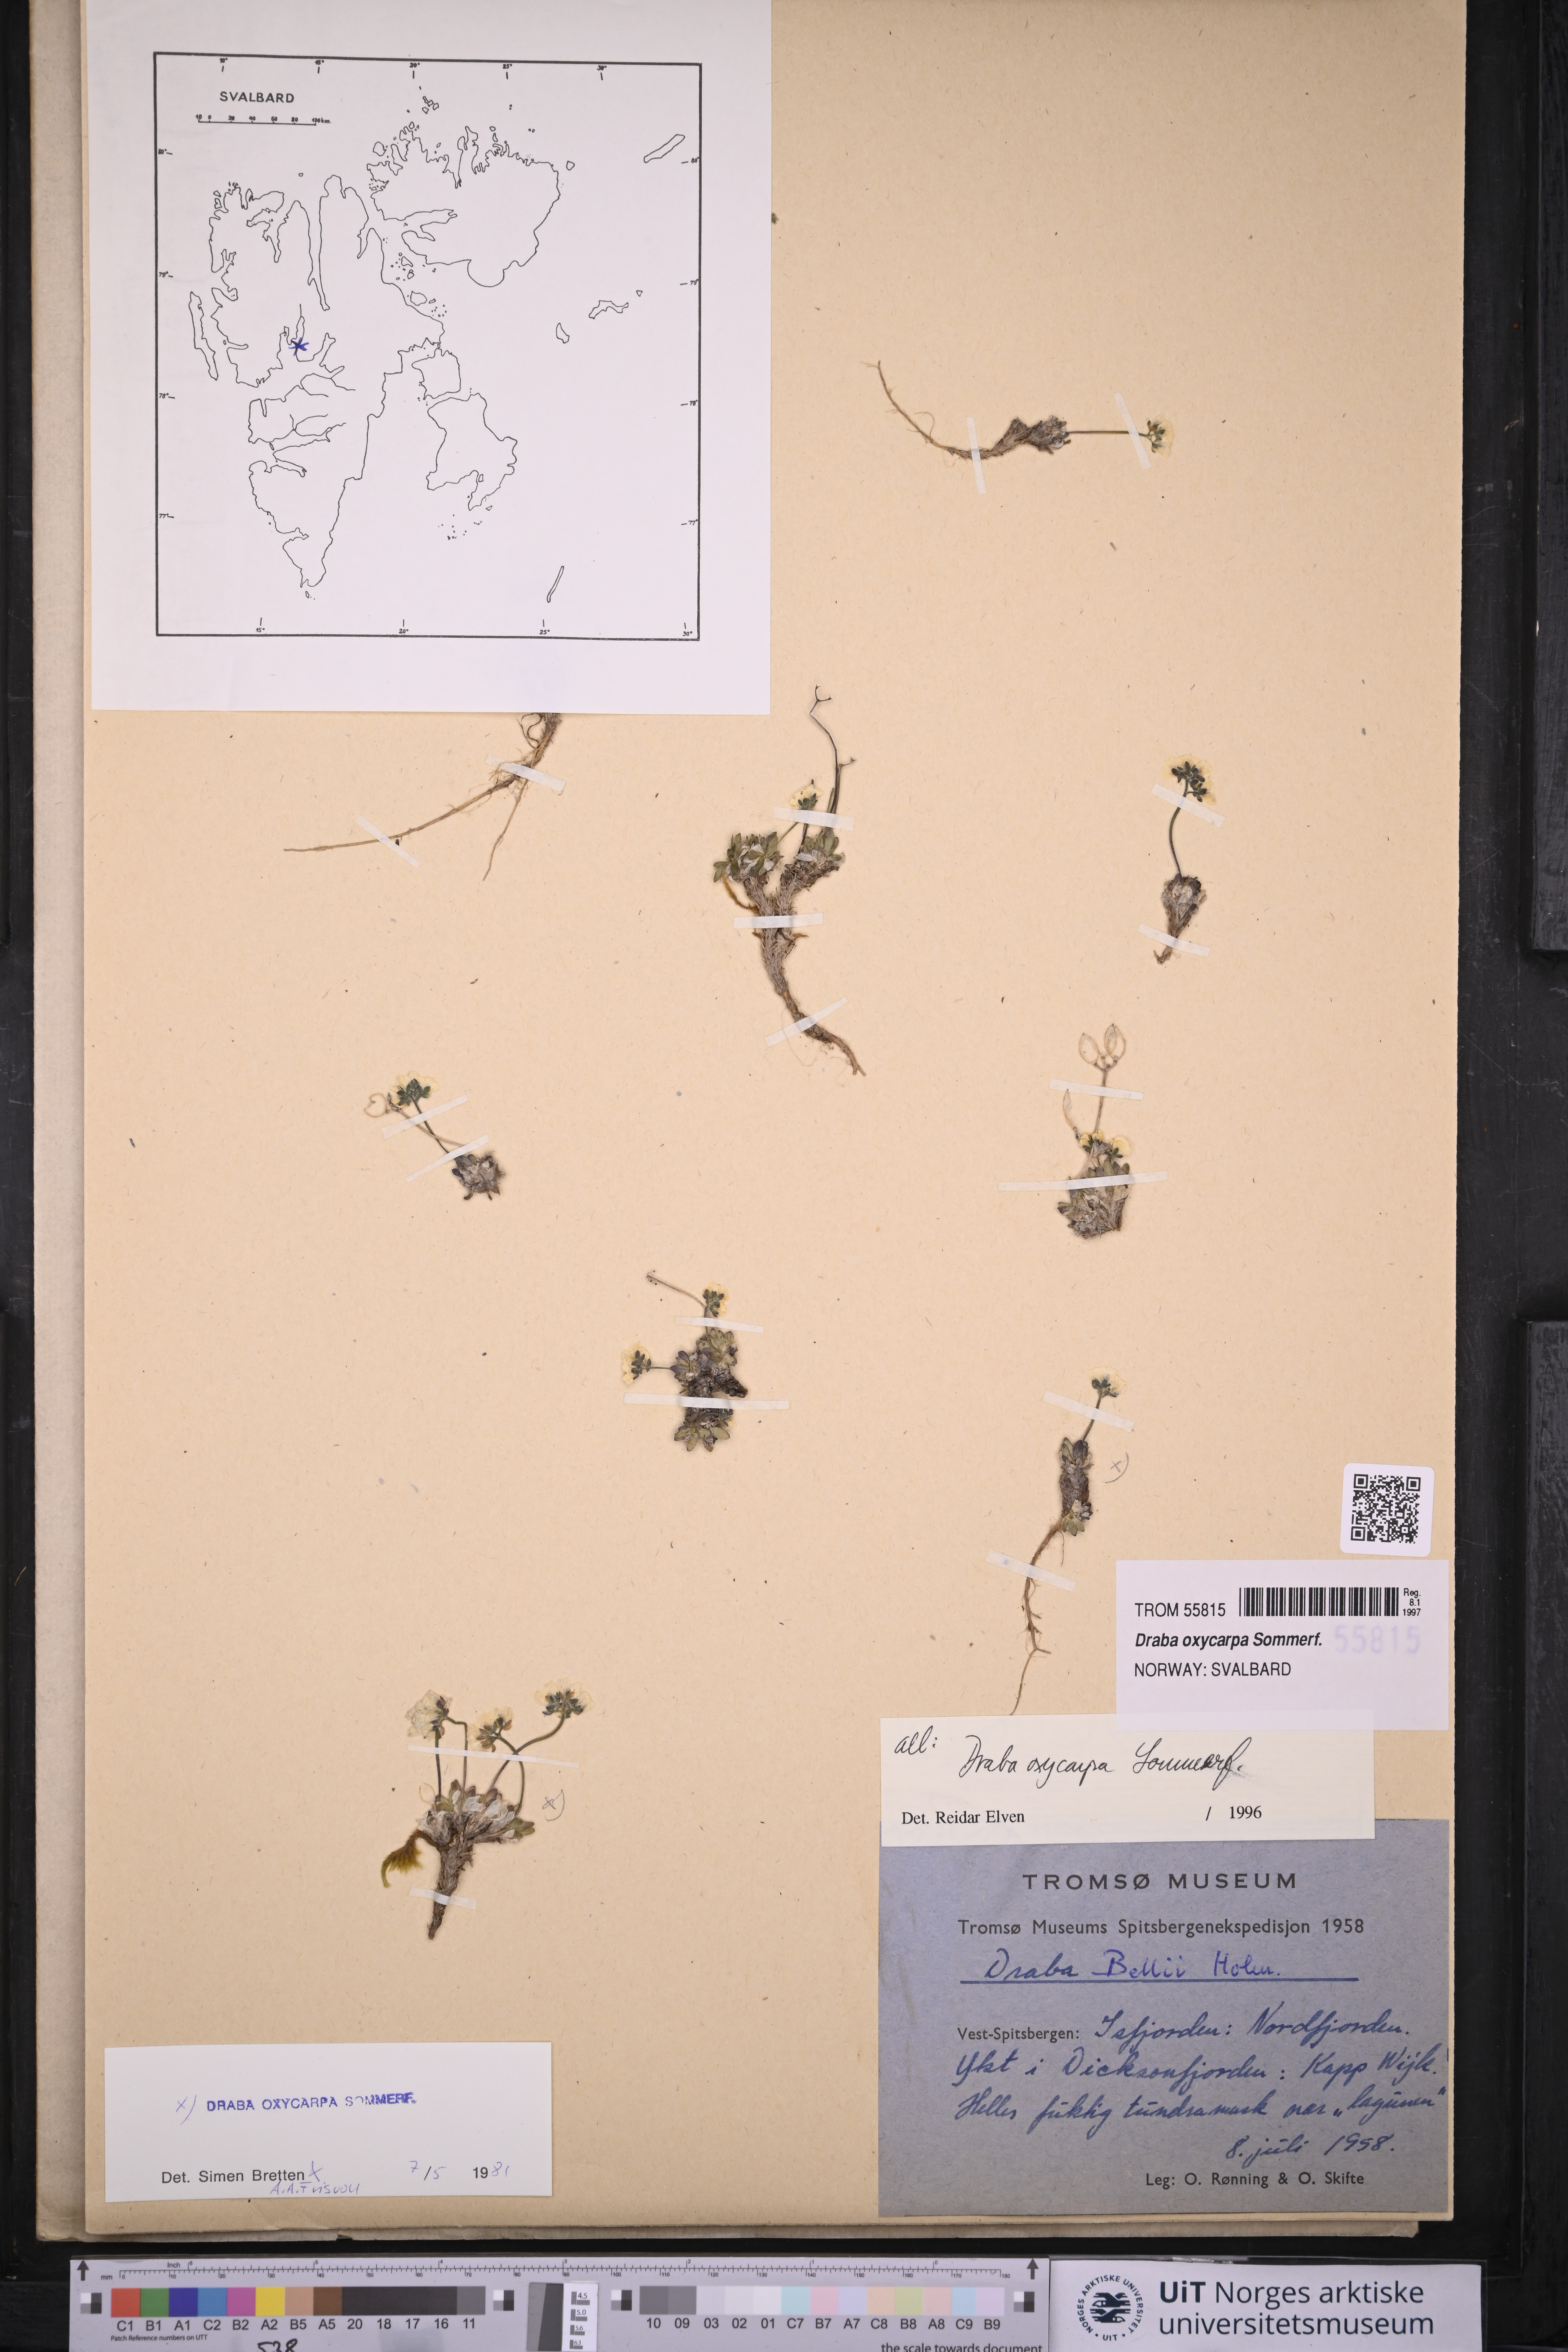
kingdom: Plantae
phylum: Tracheophyta
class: Magnoliopsida
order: Brassicales
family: Brassicaceae
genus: Draba
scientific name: Draba oxycarpa
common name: Sharp-fruited whitlow-grass
